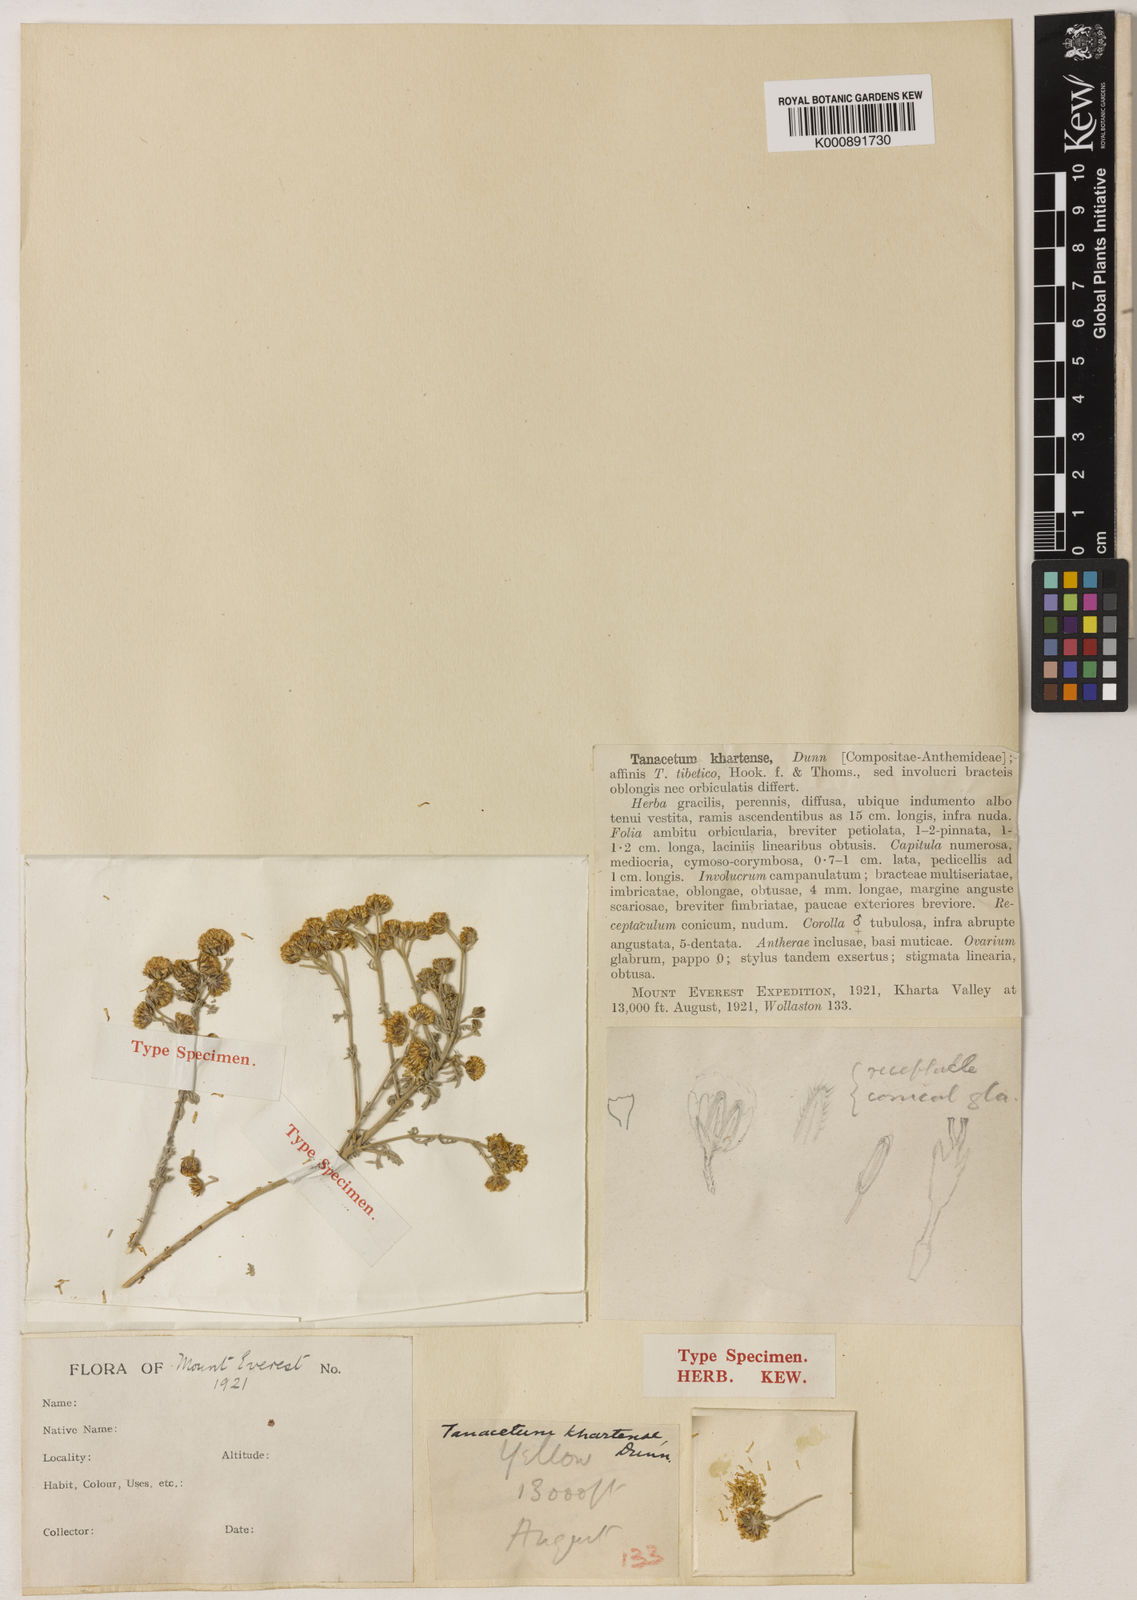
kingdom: Plantae
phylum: Tracheophyta
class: Magnoliopsida
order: Asterales
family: Asteraceae
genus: Ajania
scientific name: Ajania khartensis
